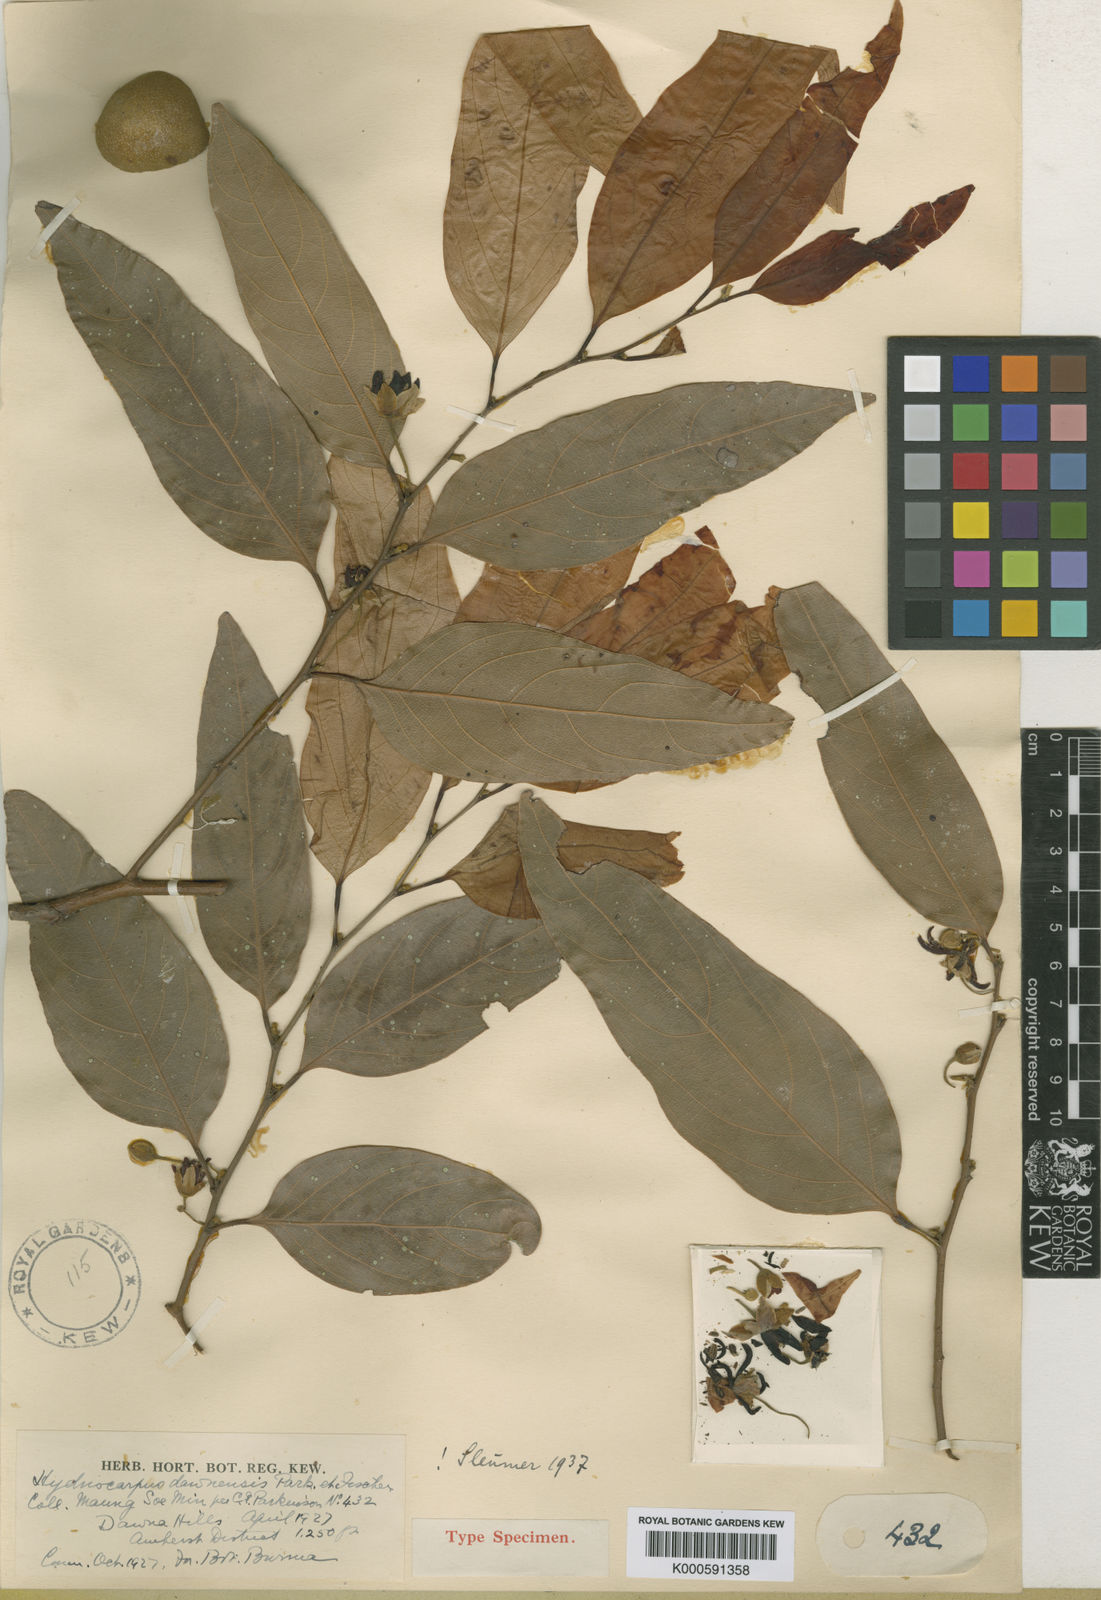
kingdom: Plantae
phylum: Tracheophyta
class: Magnoliopsida
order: Malpighiales
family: Achariaceae
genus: Hydnocarpus
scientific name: Hydnocarpus dawnensis
